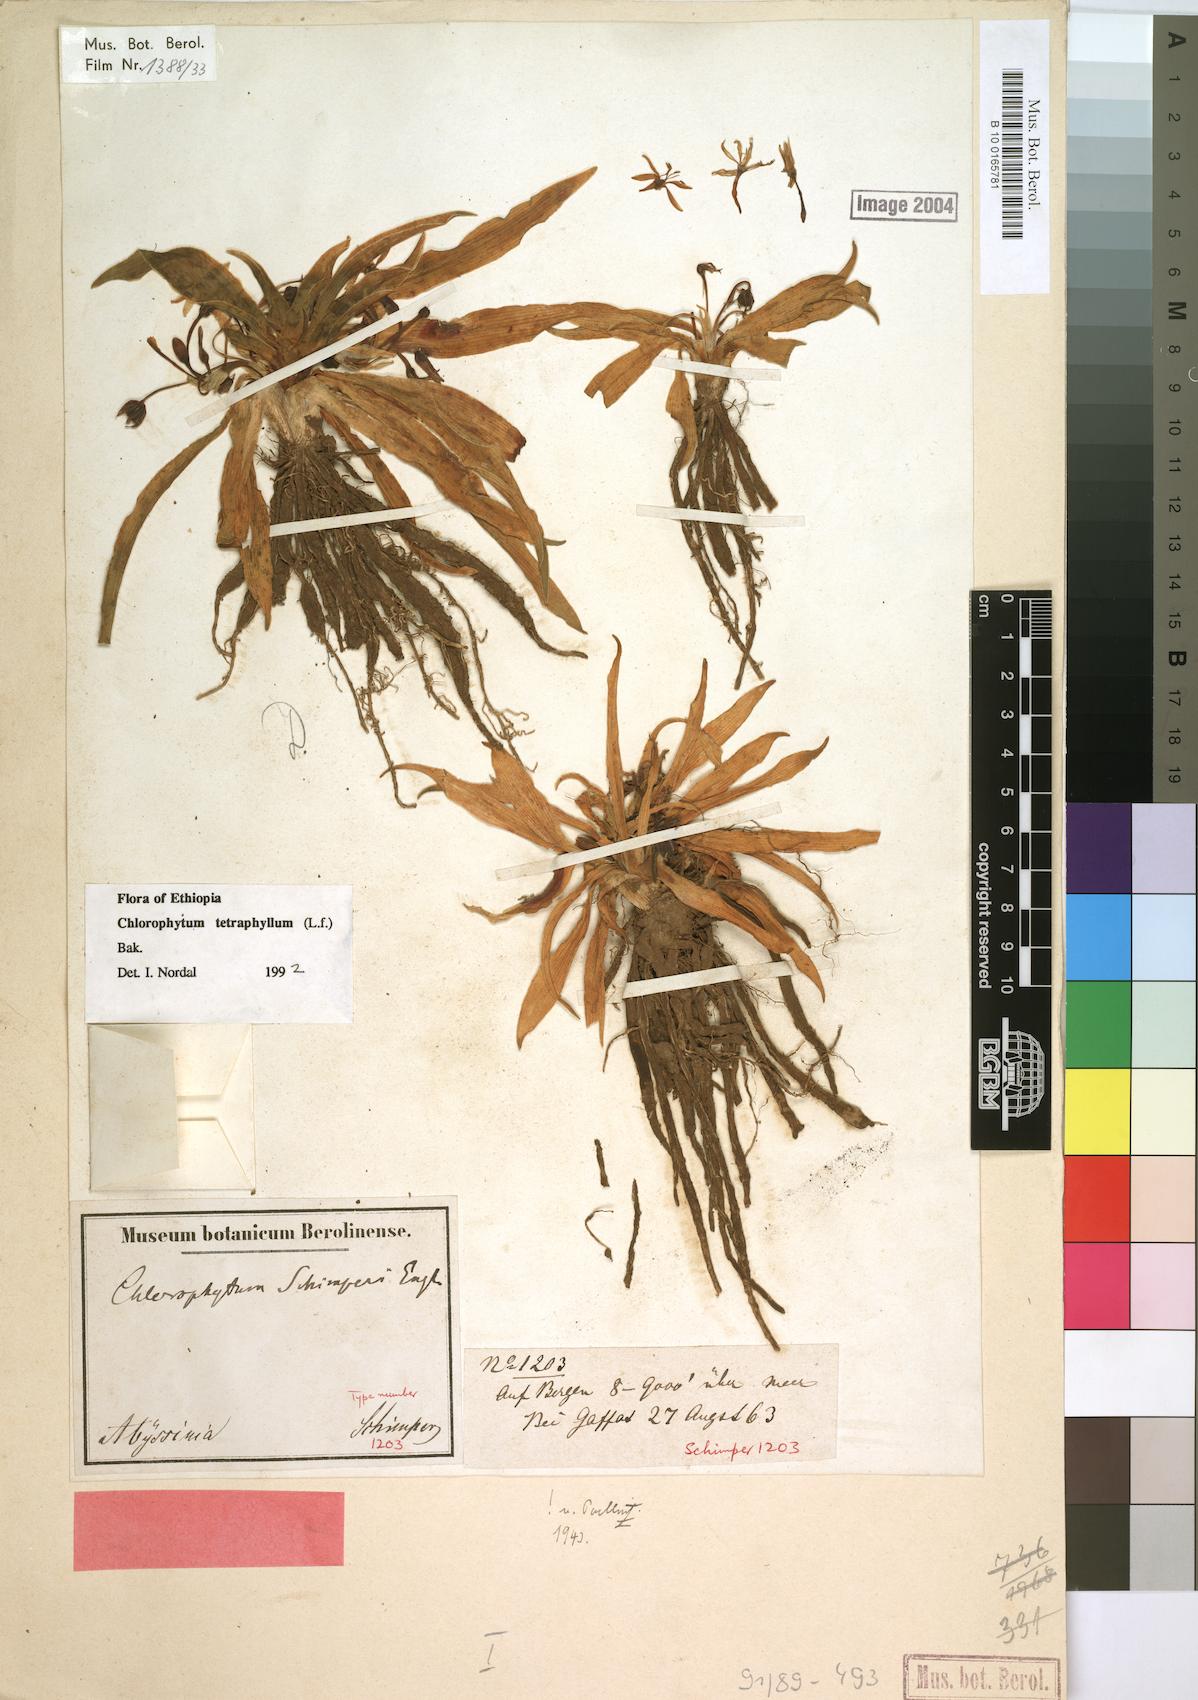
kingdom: Plantae
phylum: Tracheophyta
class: Liliopsida
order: Asparagales
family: Asparagaceae
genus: Chlorophytum
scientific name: Chlorophytum tetraphyllum
